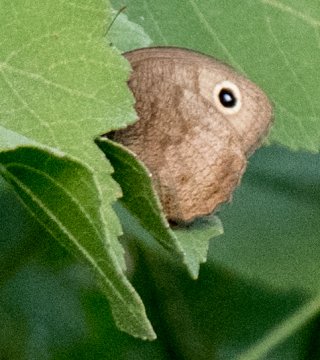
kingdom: Animalia
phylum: Arthropoda
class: Insecta
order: Lepidoptera
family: Nymphalidae
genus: Cercyonis
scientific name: Cercyonis pegala
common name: Common Wood-Nymph
